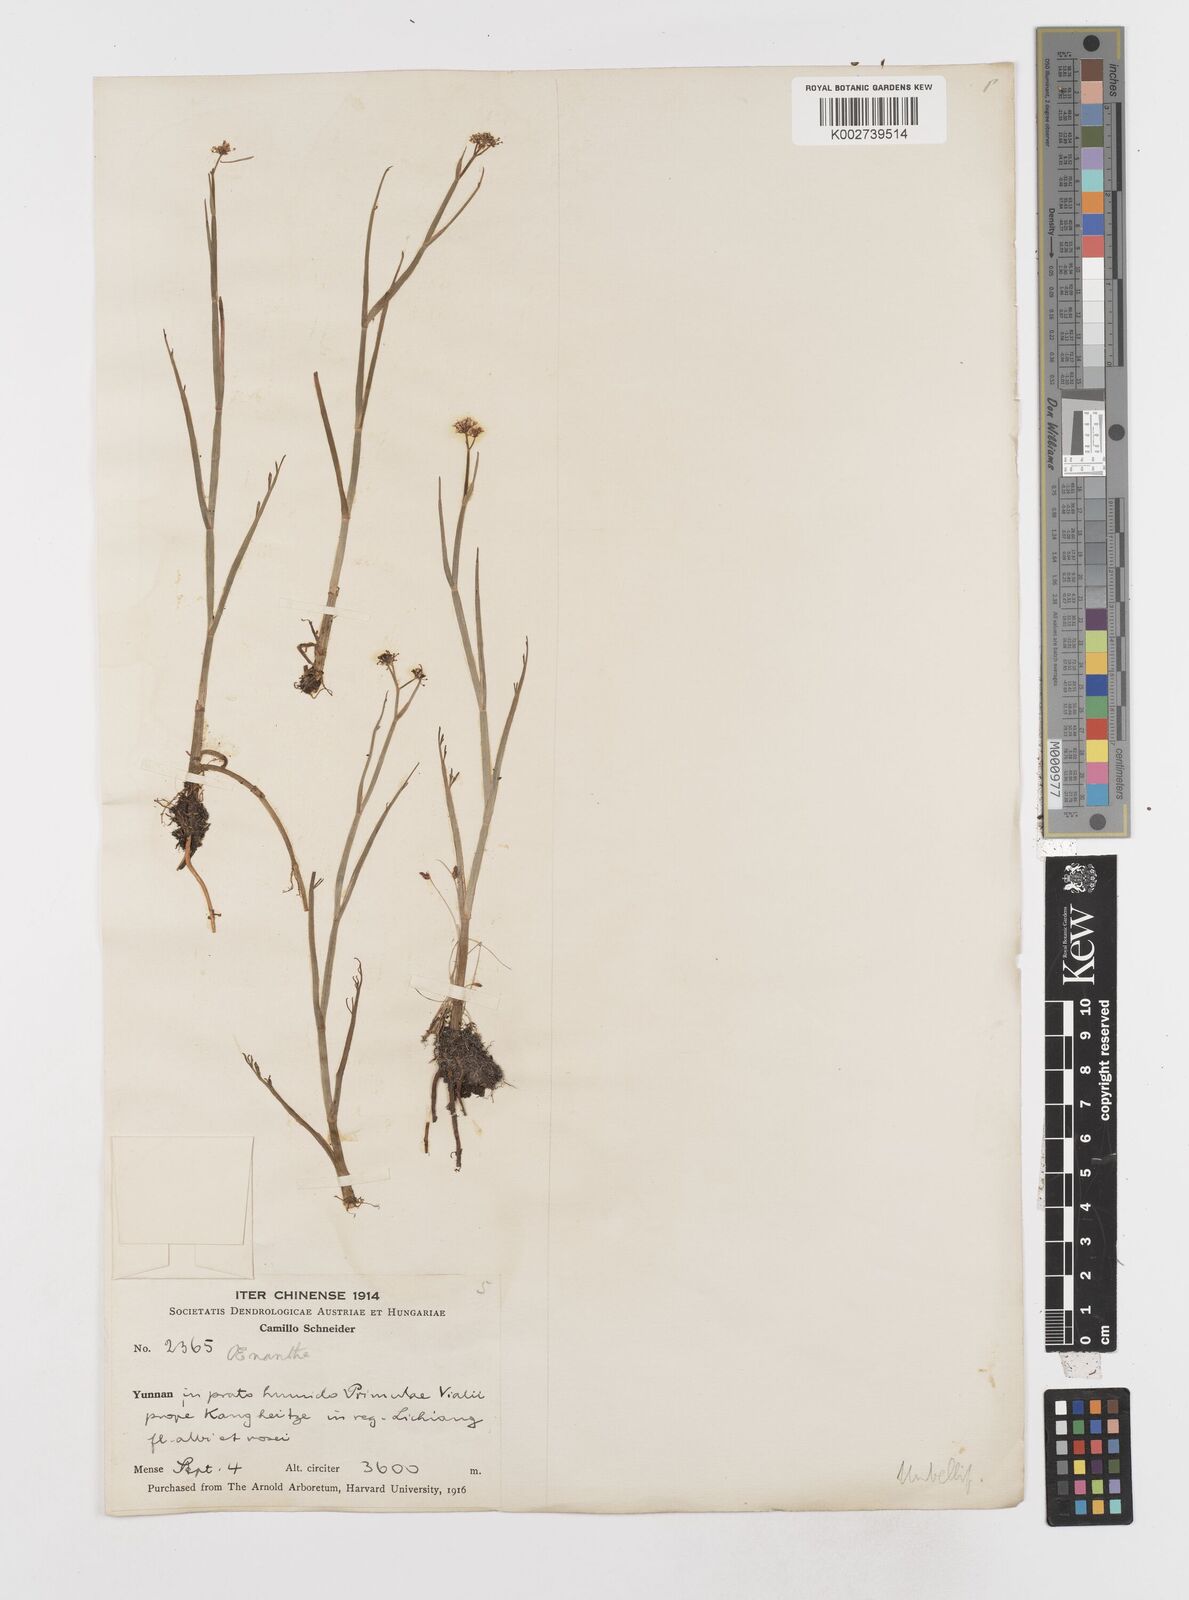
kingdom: Plantae
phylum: Tracheophyta
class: Magnoliopsida
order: Apiales
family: Apiaceae
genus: Oenanthe
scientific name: Oenanthe linearis
